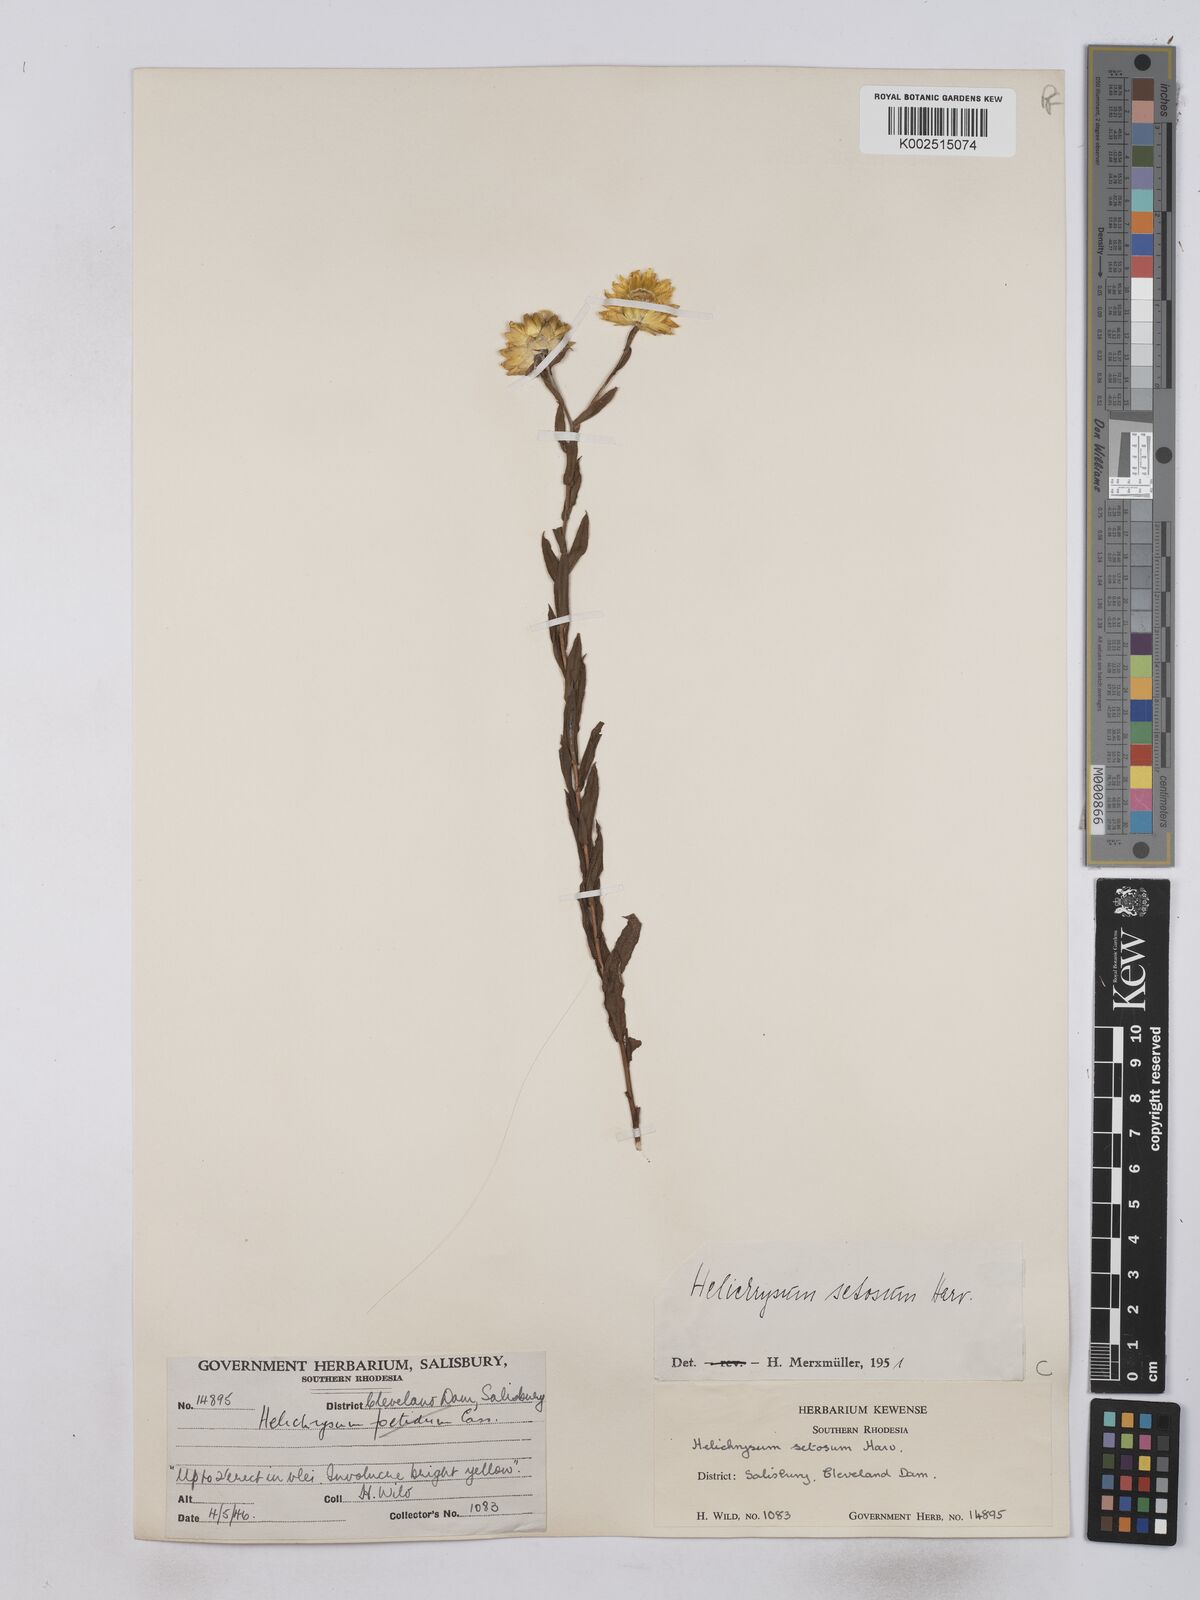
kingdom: Plantae
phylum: Tracheophyta
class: Magnoliopsida
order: Asterales
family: Asteraceae
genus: Helichrysum
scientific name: Helichrysum setosum
